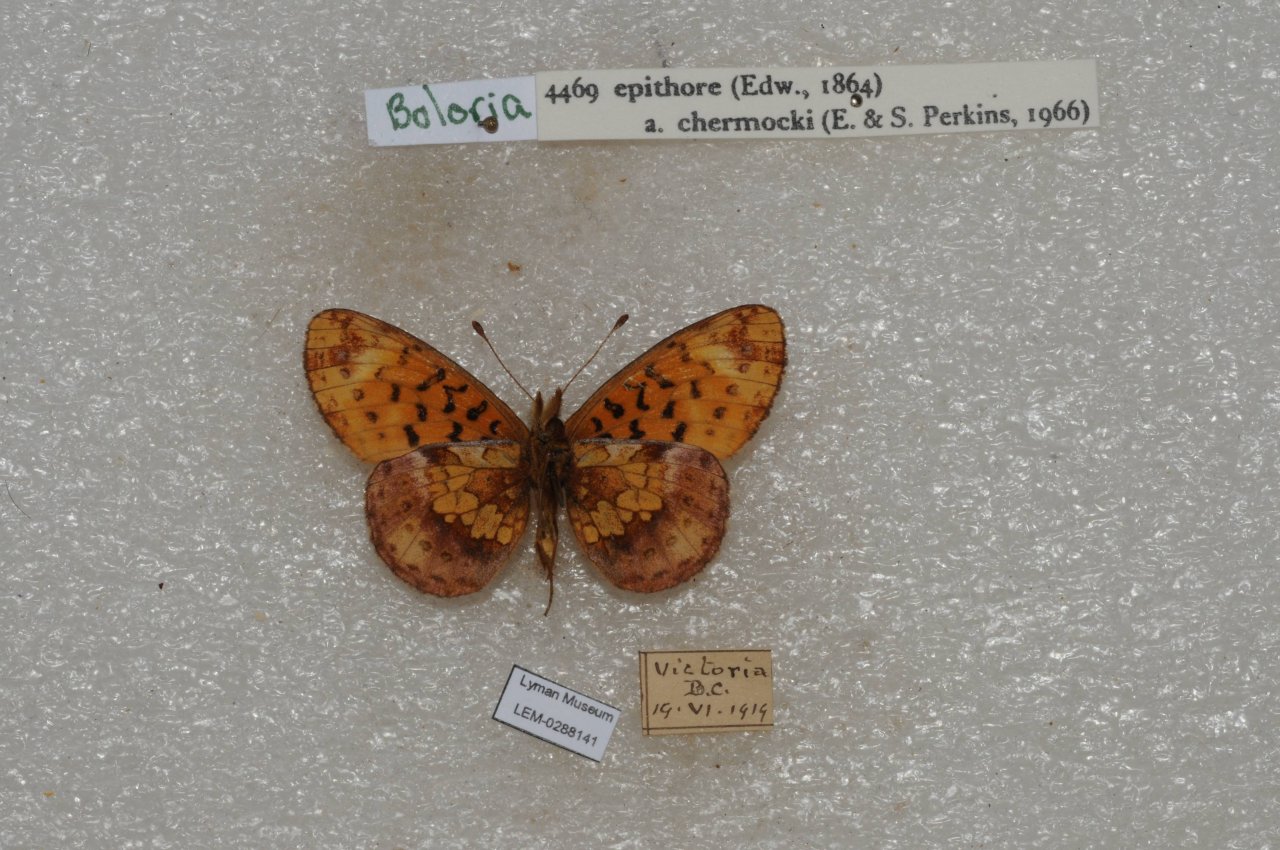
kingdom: Animalia
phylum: Arthropoda
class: Insecta
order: Lepidoptera
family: Nymphalidae
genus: Boloria
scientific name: Boloria epithore
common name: Pacific Fritillary
